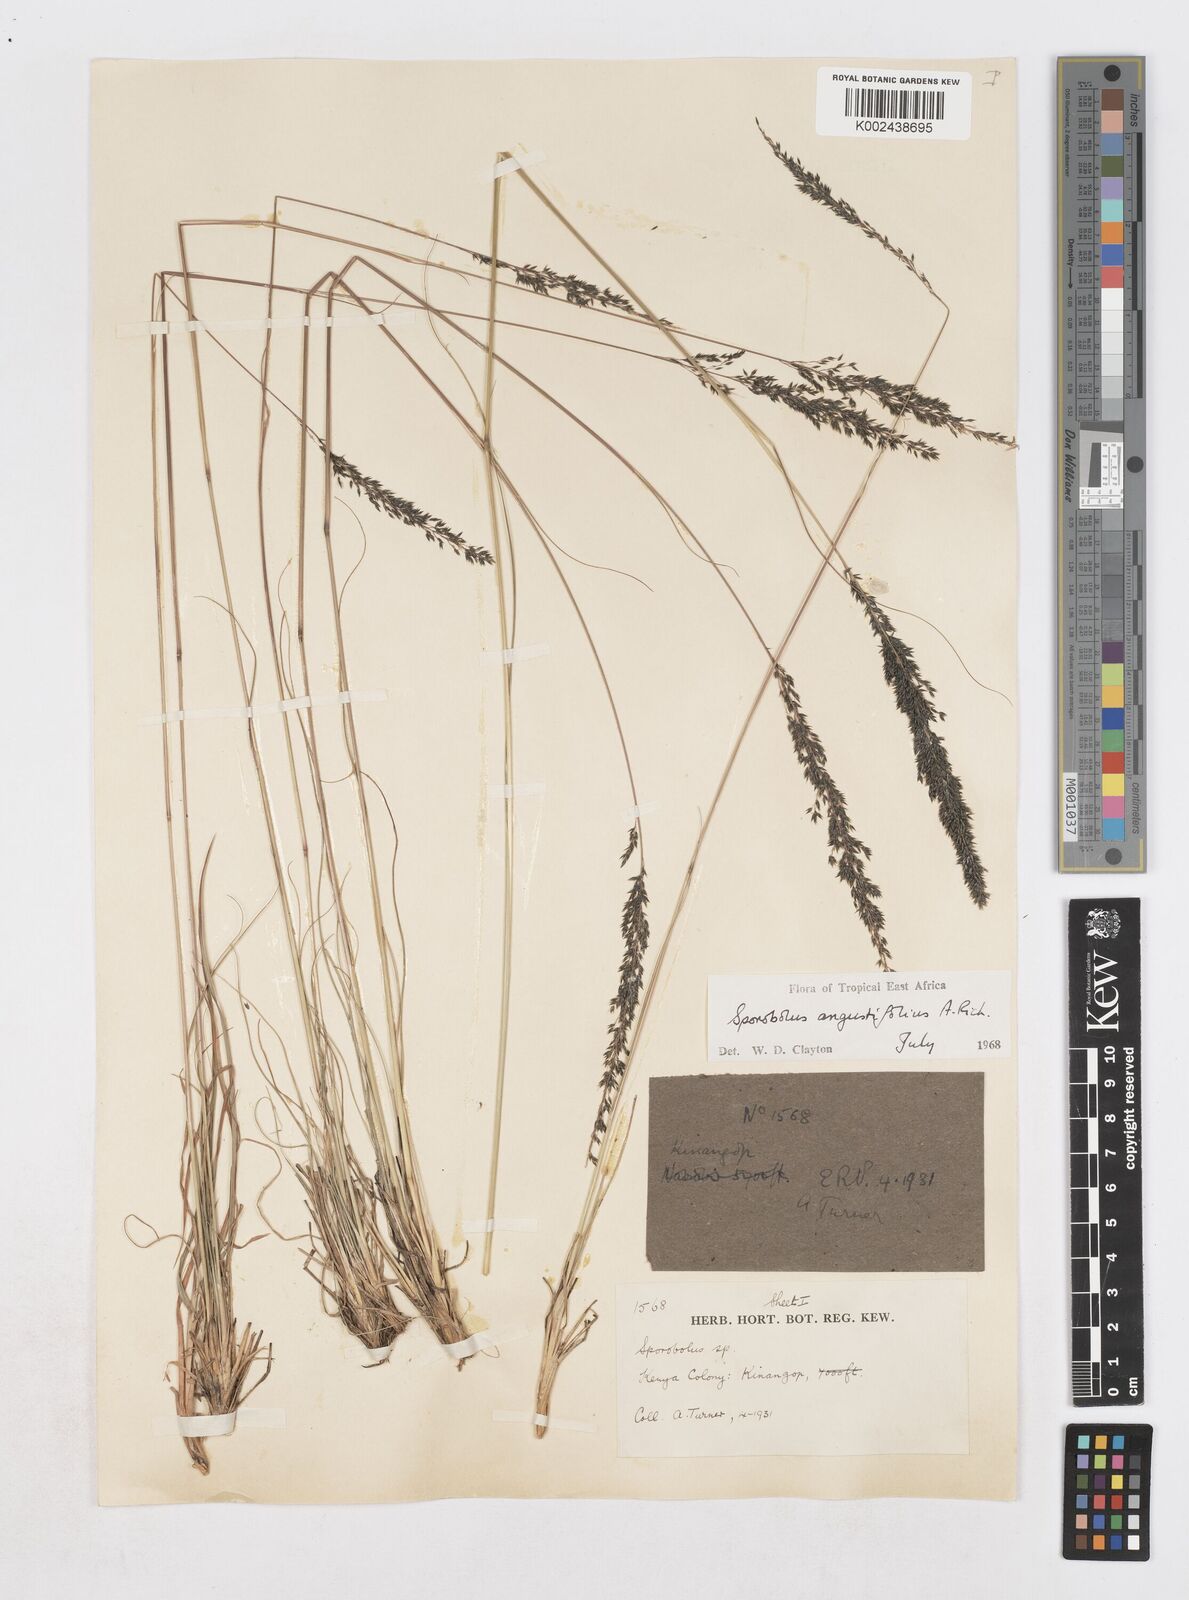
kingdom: Plantae
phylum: Tracheophyta
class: Liliopsida
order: Poales
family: Poaceae
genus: Sporobolus
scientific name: Sporobolus angustifolius
